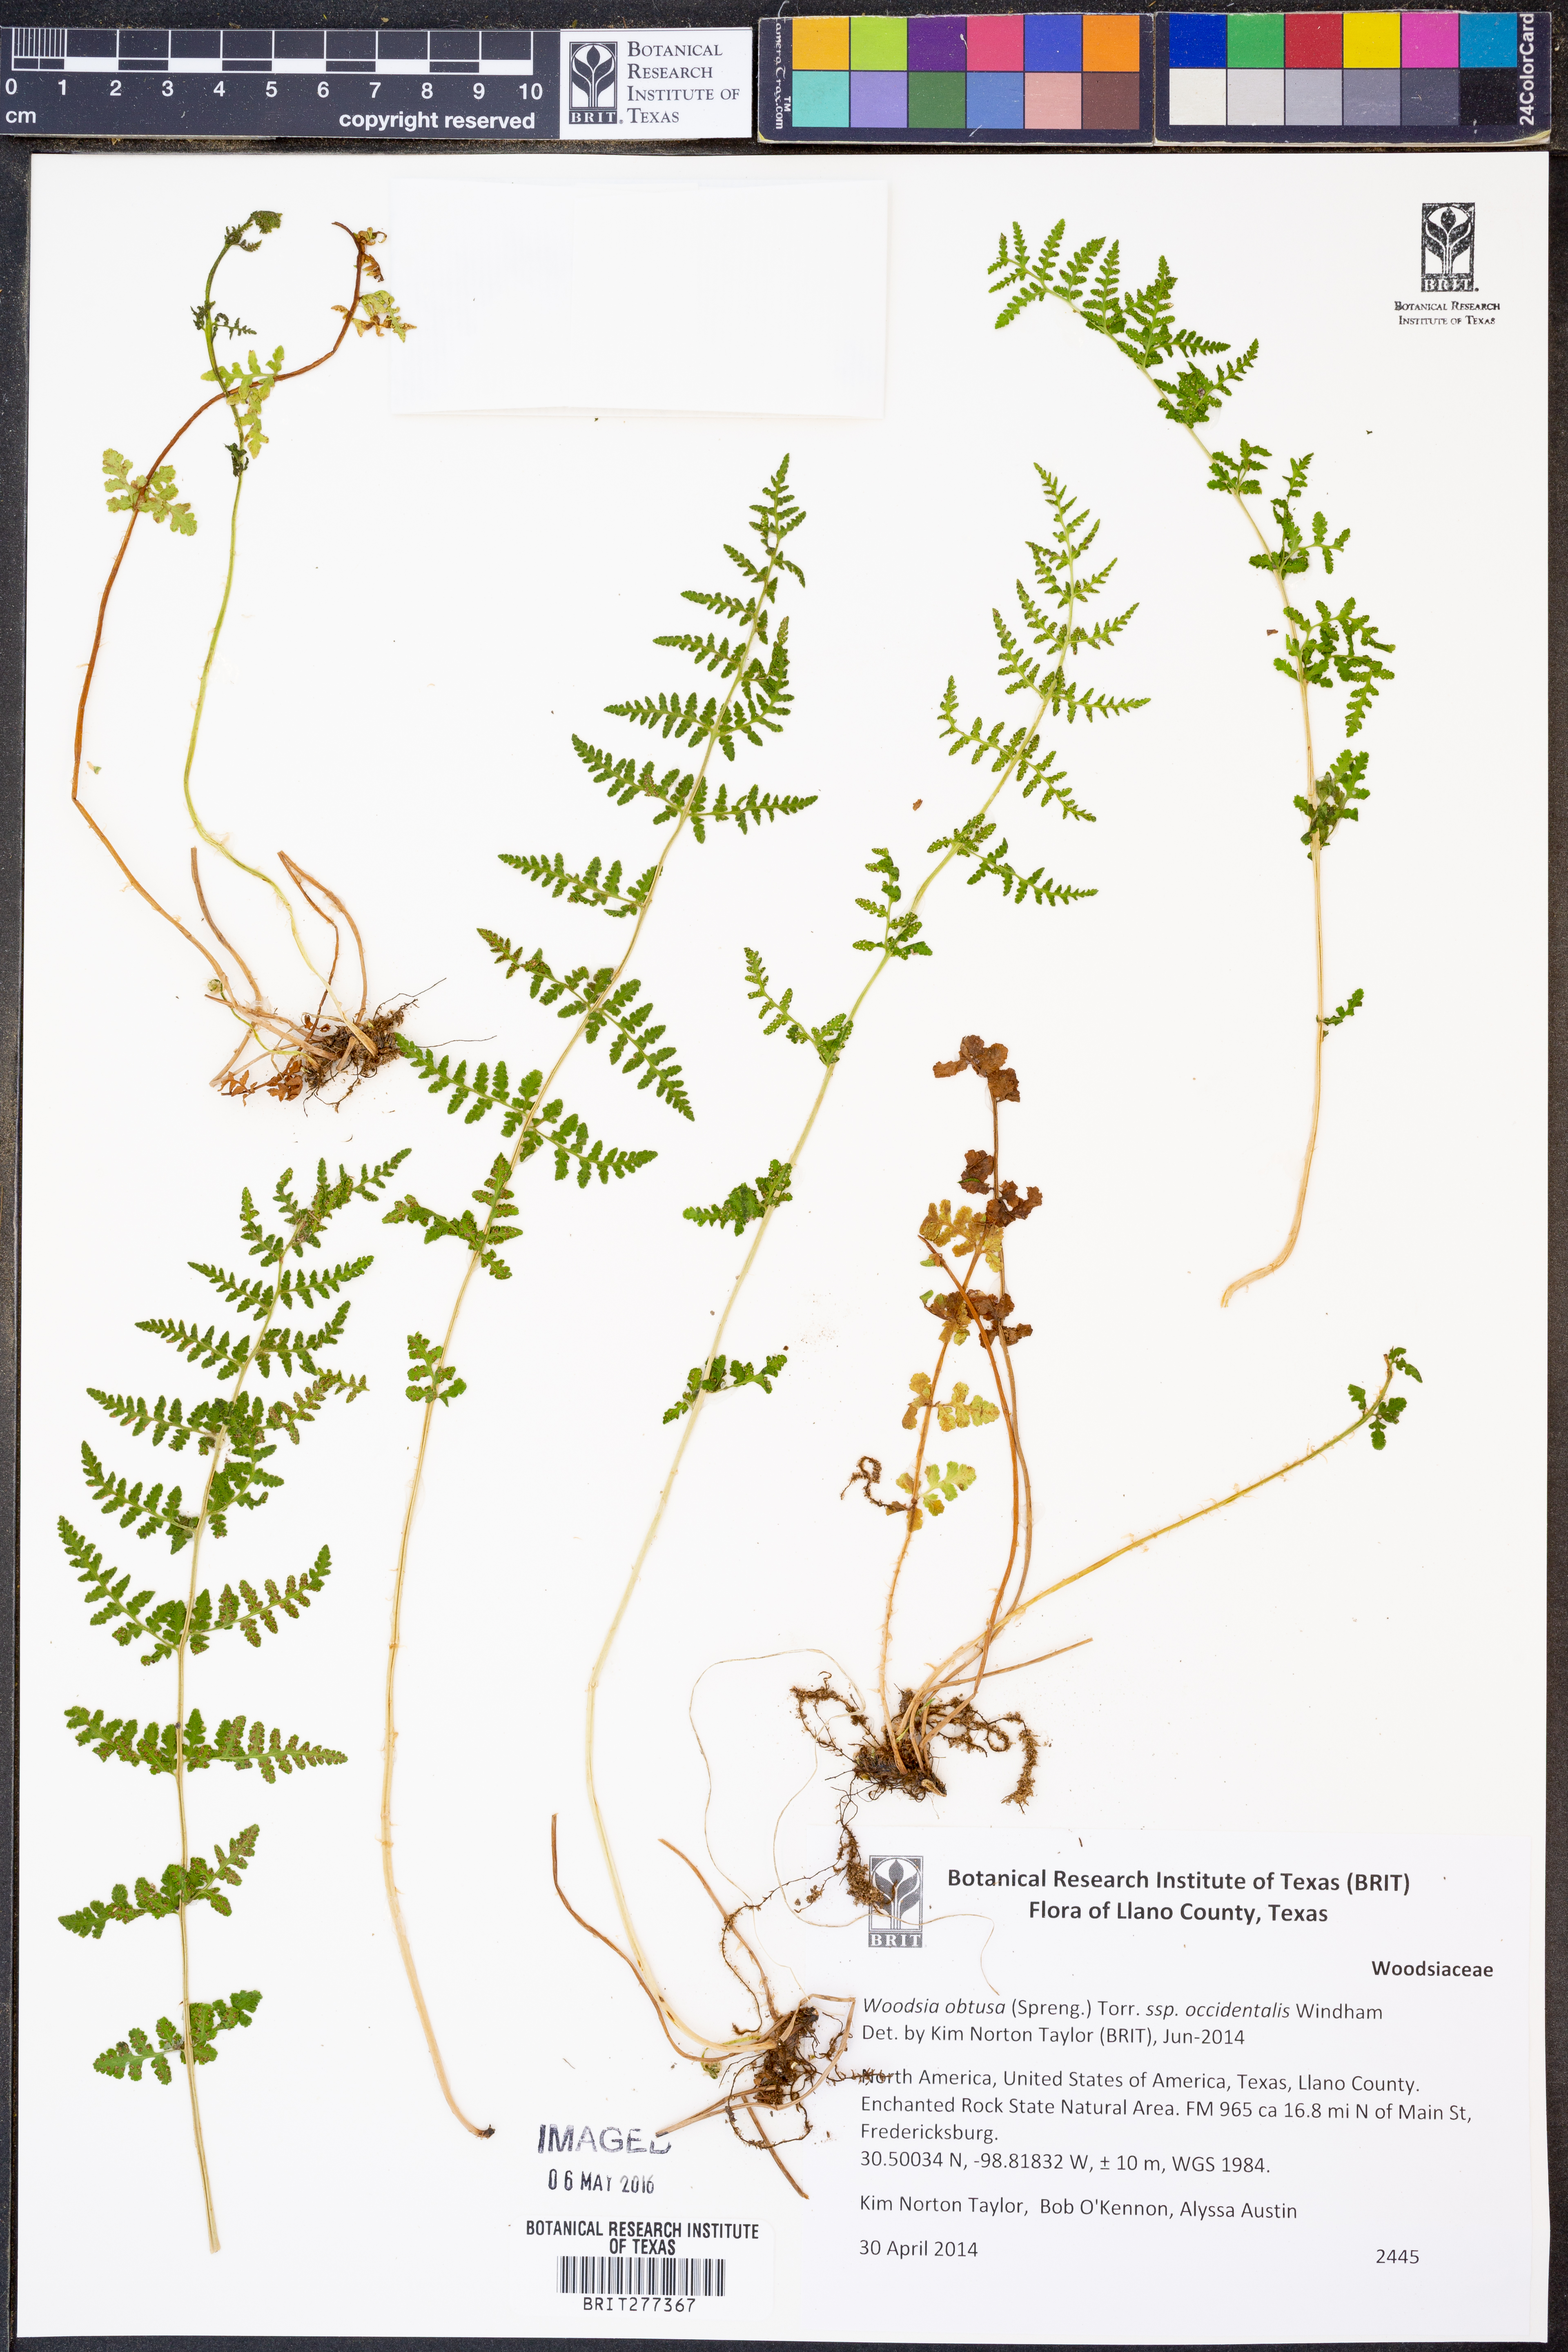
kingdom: Plantae
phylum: Tracheophyta
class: Polypodiopsida
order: Polypodiales
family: Woodsiaceae
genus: Physematium
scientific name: Physematium obtusum
